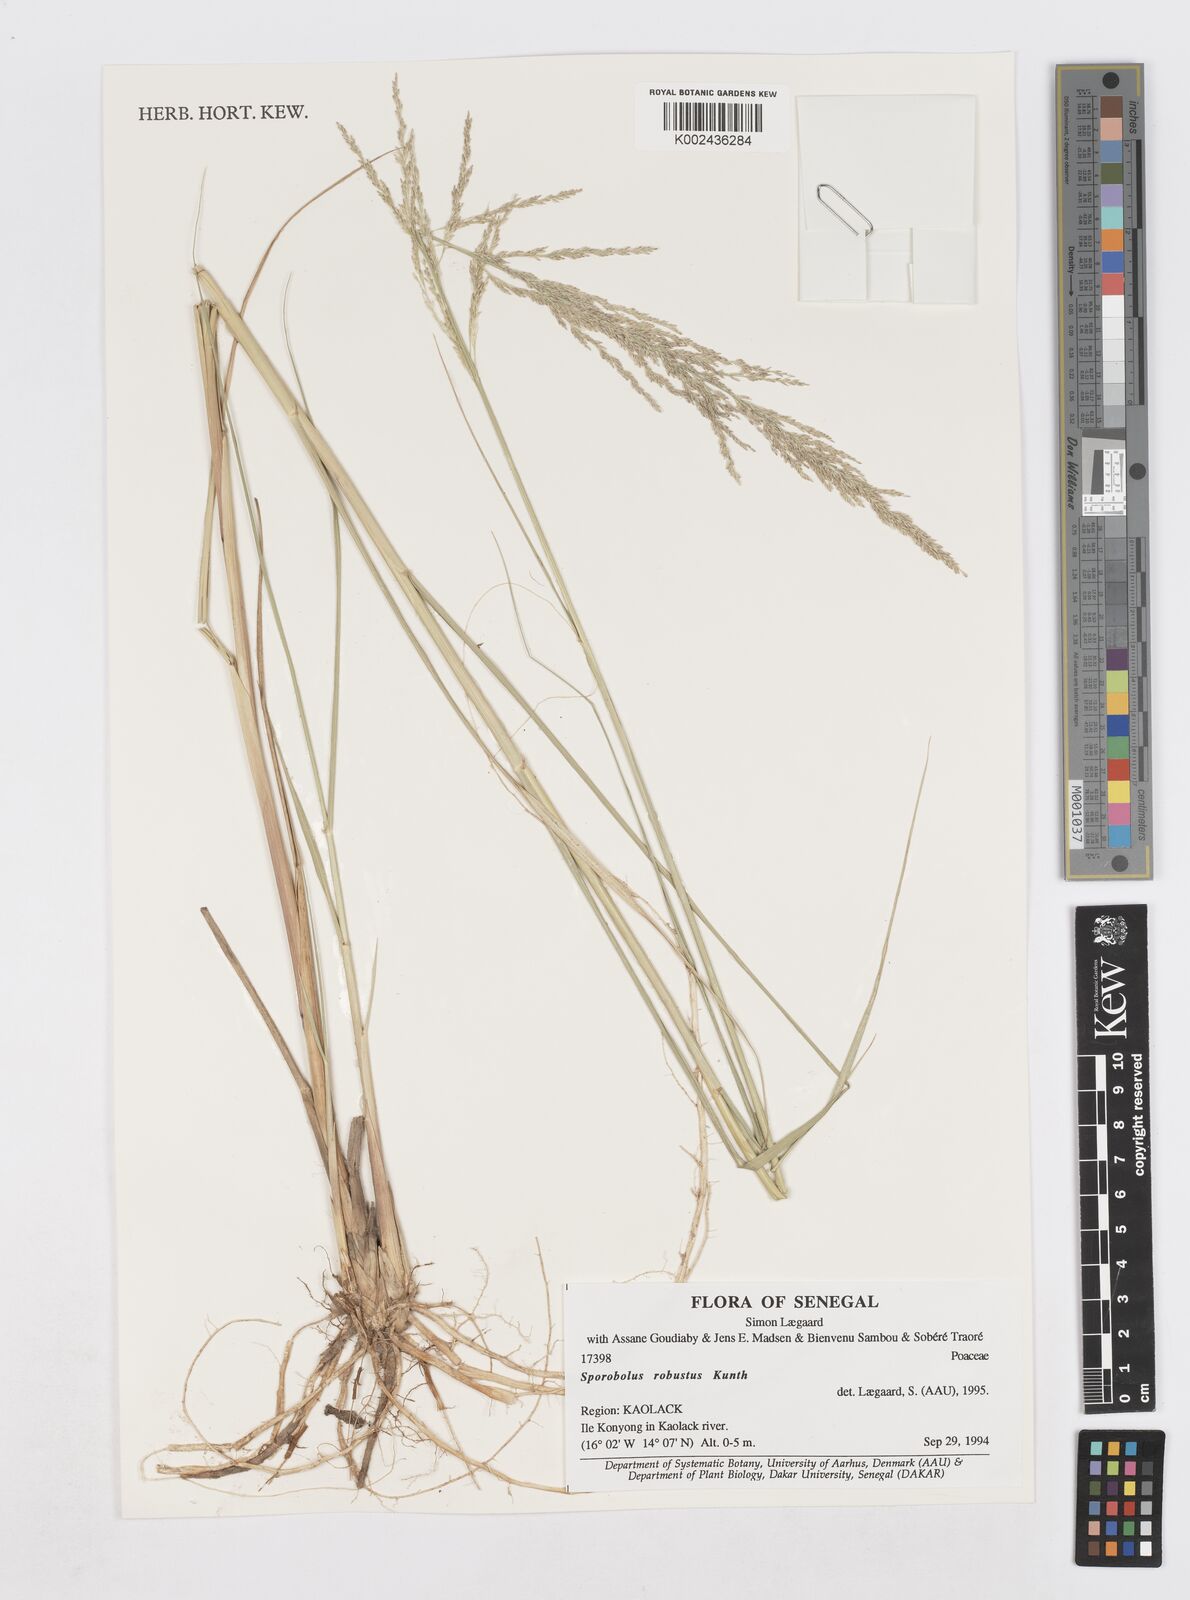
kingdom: Plantae
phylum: Tracheophyta
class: Liliopsida
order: Poales
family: Poaceae
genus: Sporobolus
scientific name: Sporobolus robustus
